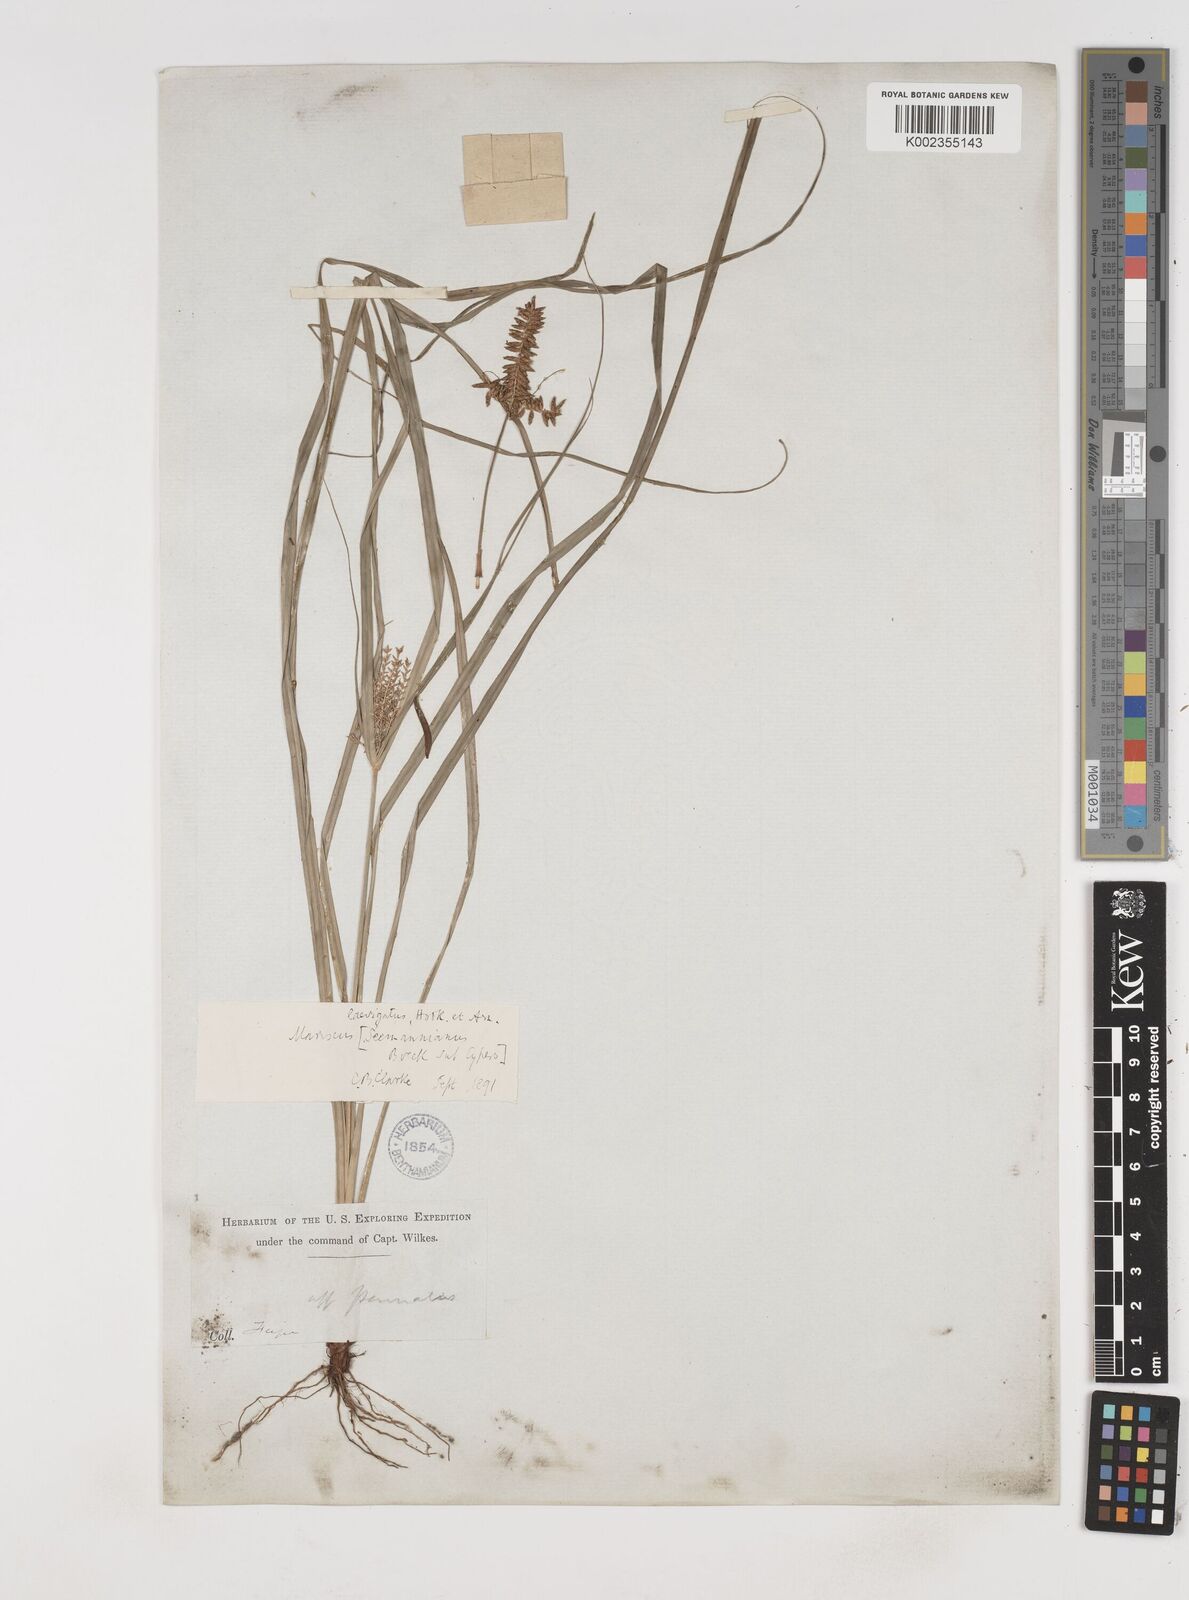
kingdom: Plantae
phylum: Tracheophyta
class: Liliopsida
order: Poales
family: Cyperaceae
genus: Cyperus
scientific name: Cyperus seemannianus
